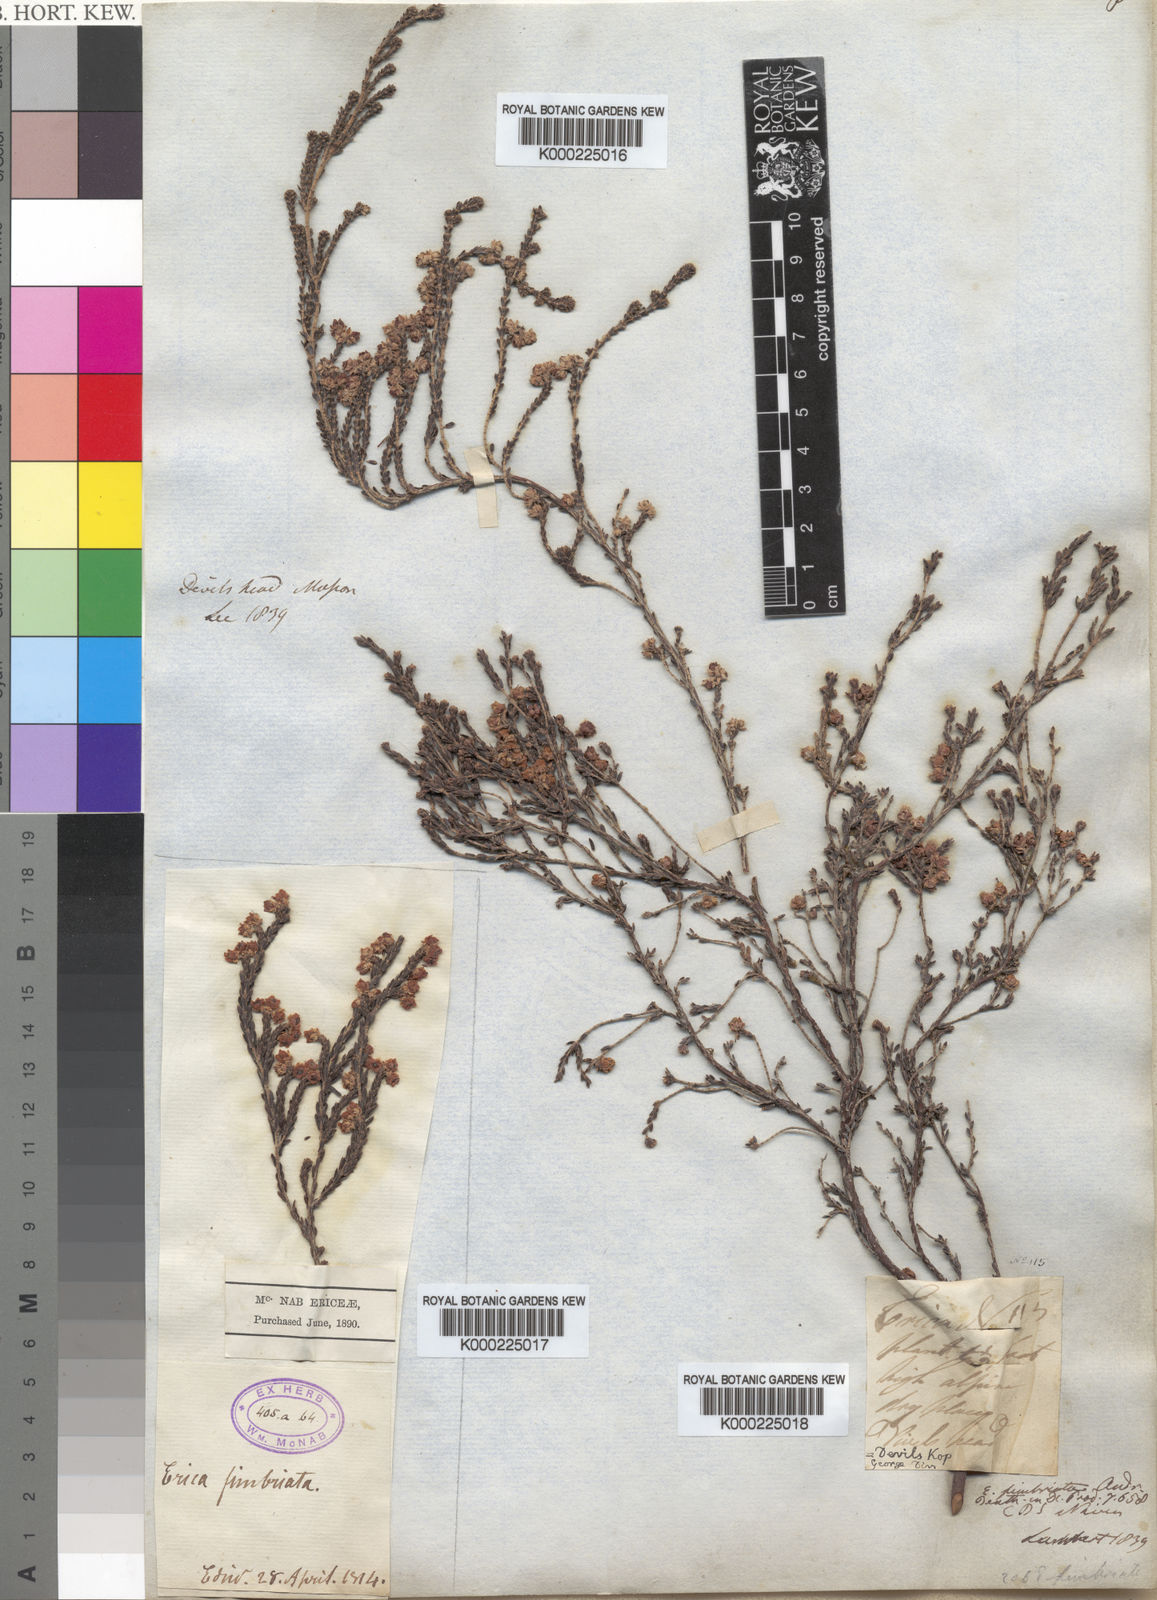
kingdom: Plantae
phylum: Tracheophyta
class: Magnoliopsida
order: Ericales
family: Ericaceae
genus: Erica
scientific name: Erica fimbriata
